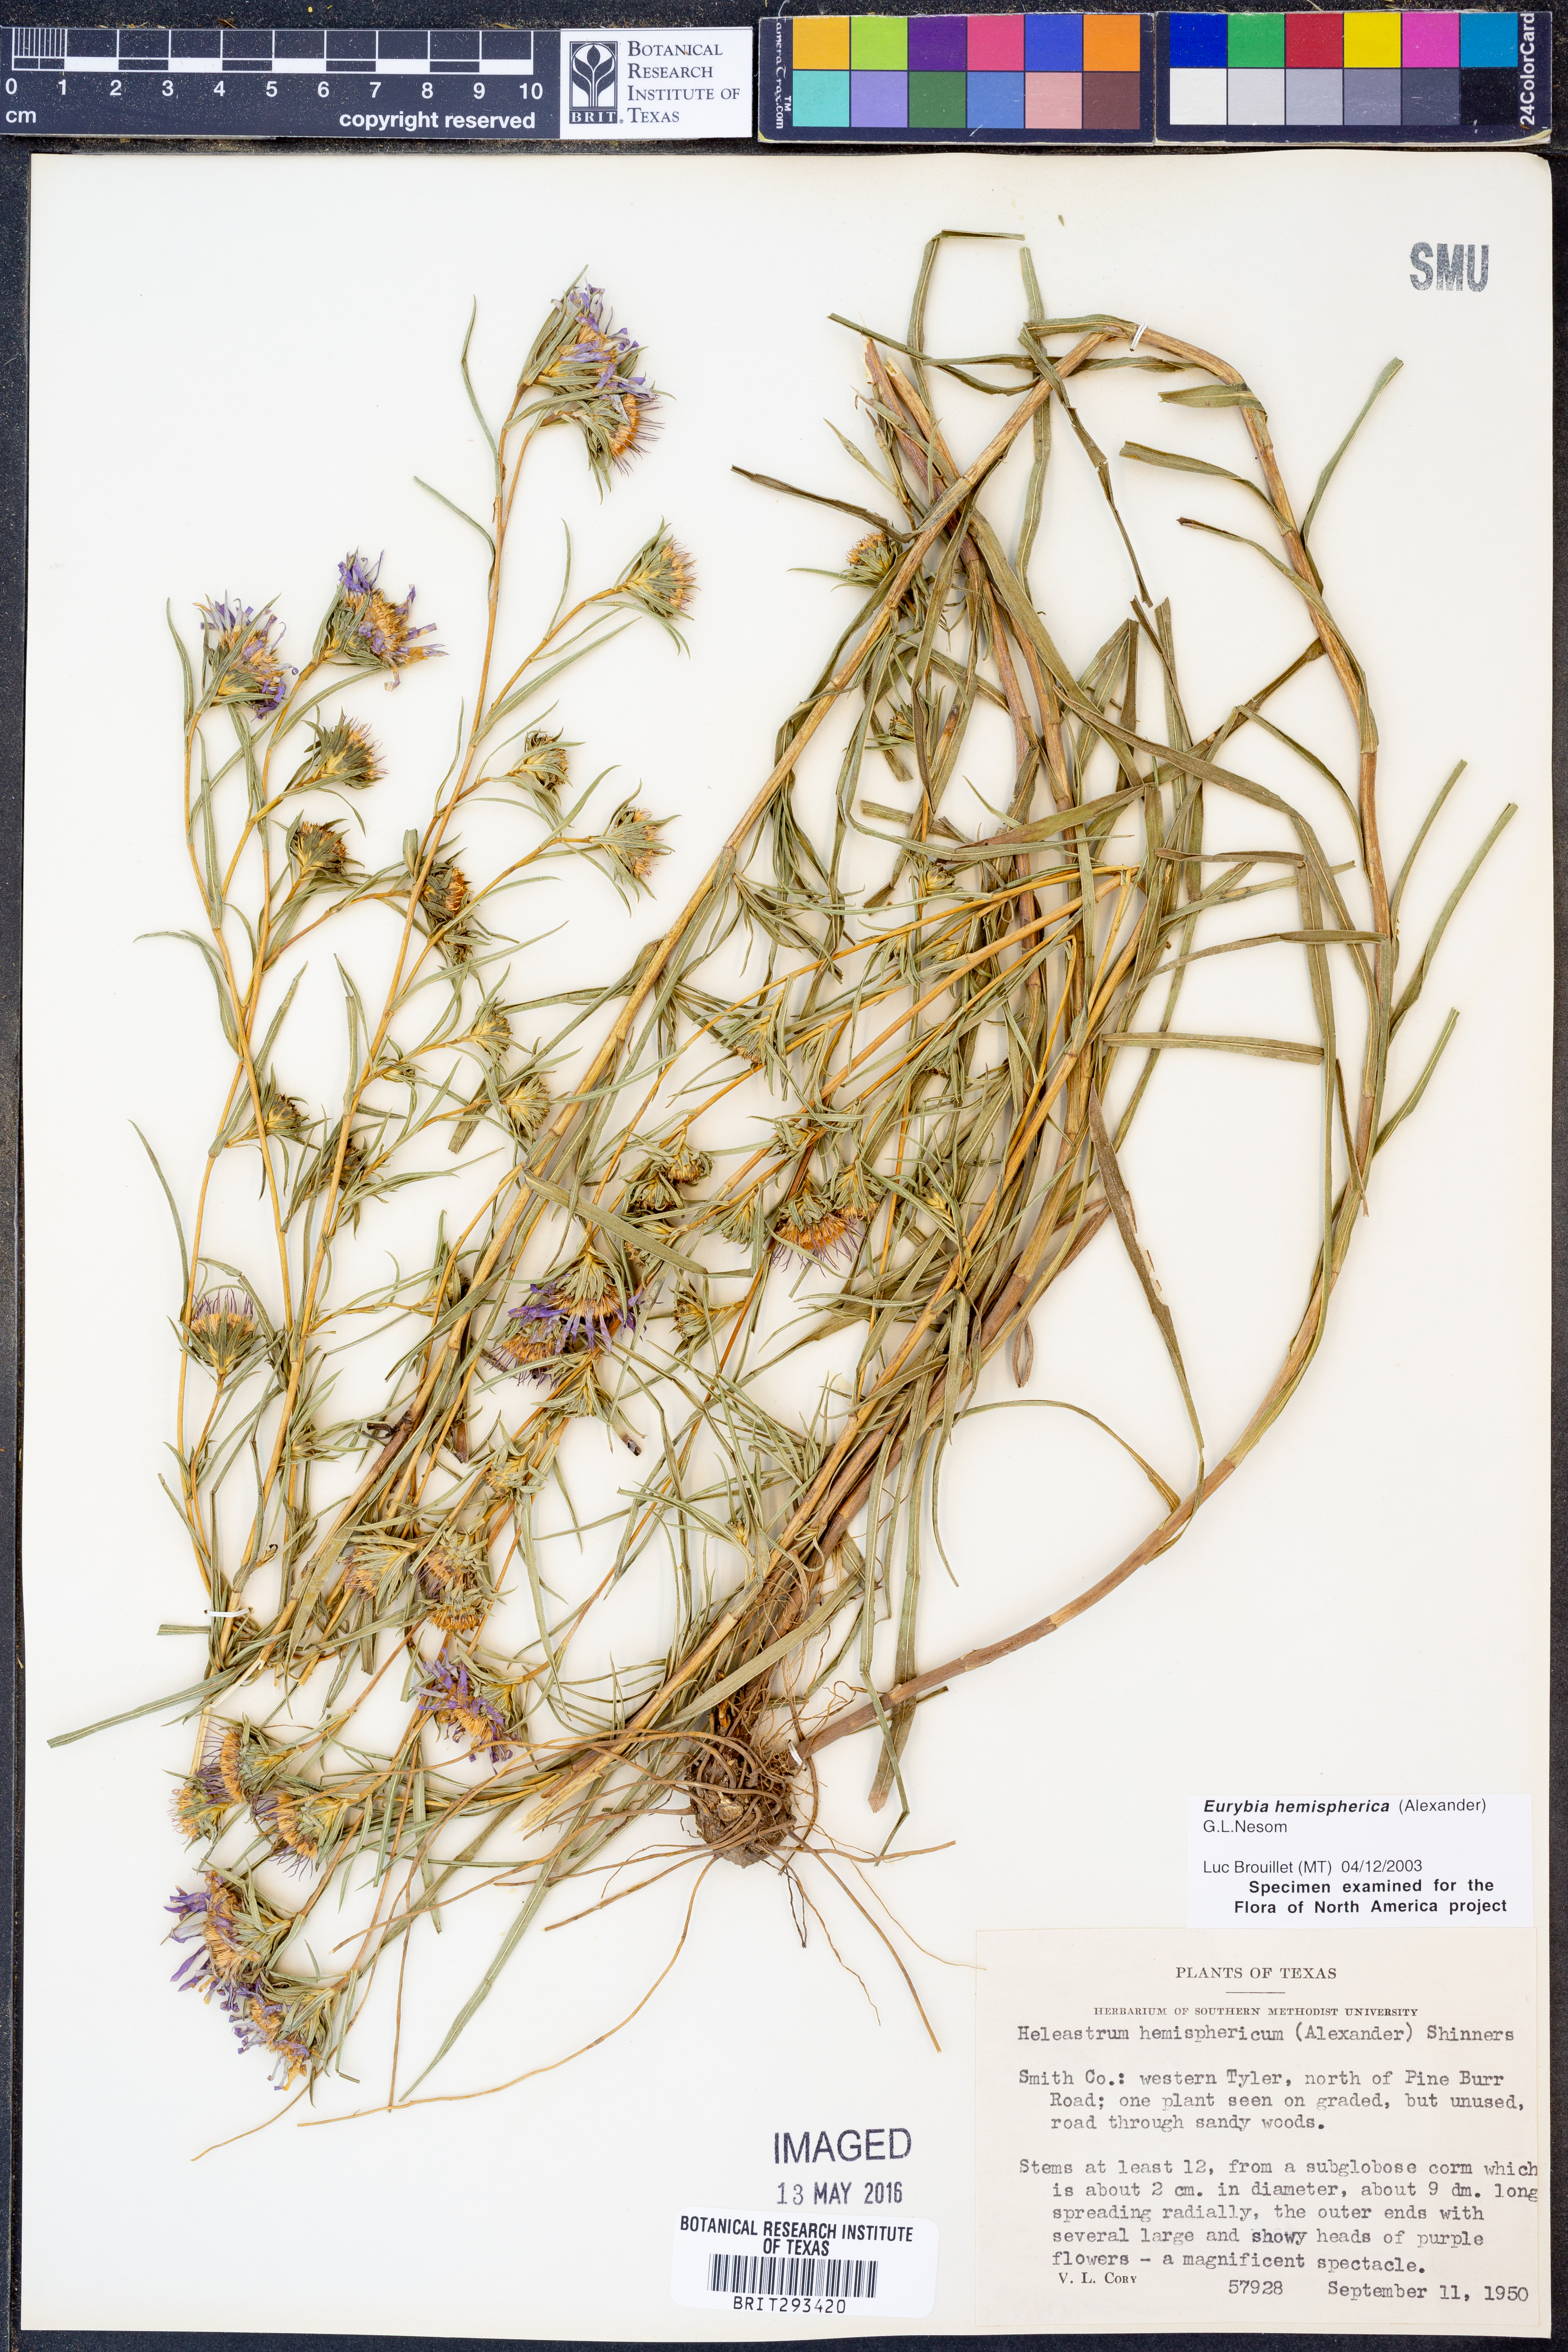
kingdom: Plantae
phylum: Tracheophyta
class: Magnoliopsida
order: Asterales
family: Asteraceae
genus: Eurybia
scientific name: Eurybia hemispherica
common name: Showy aster
